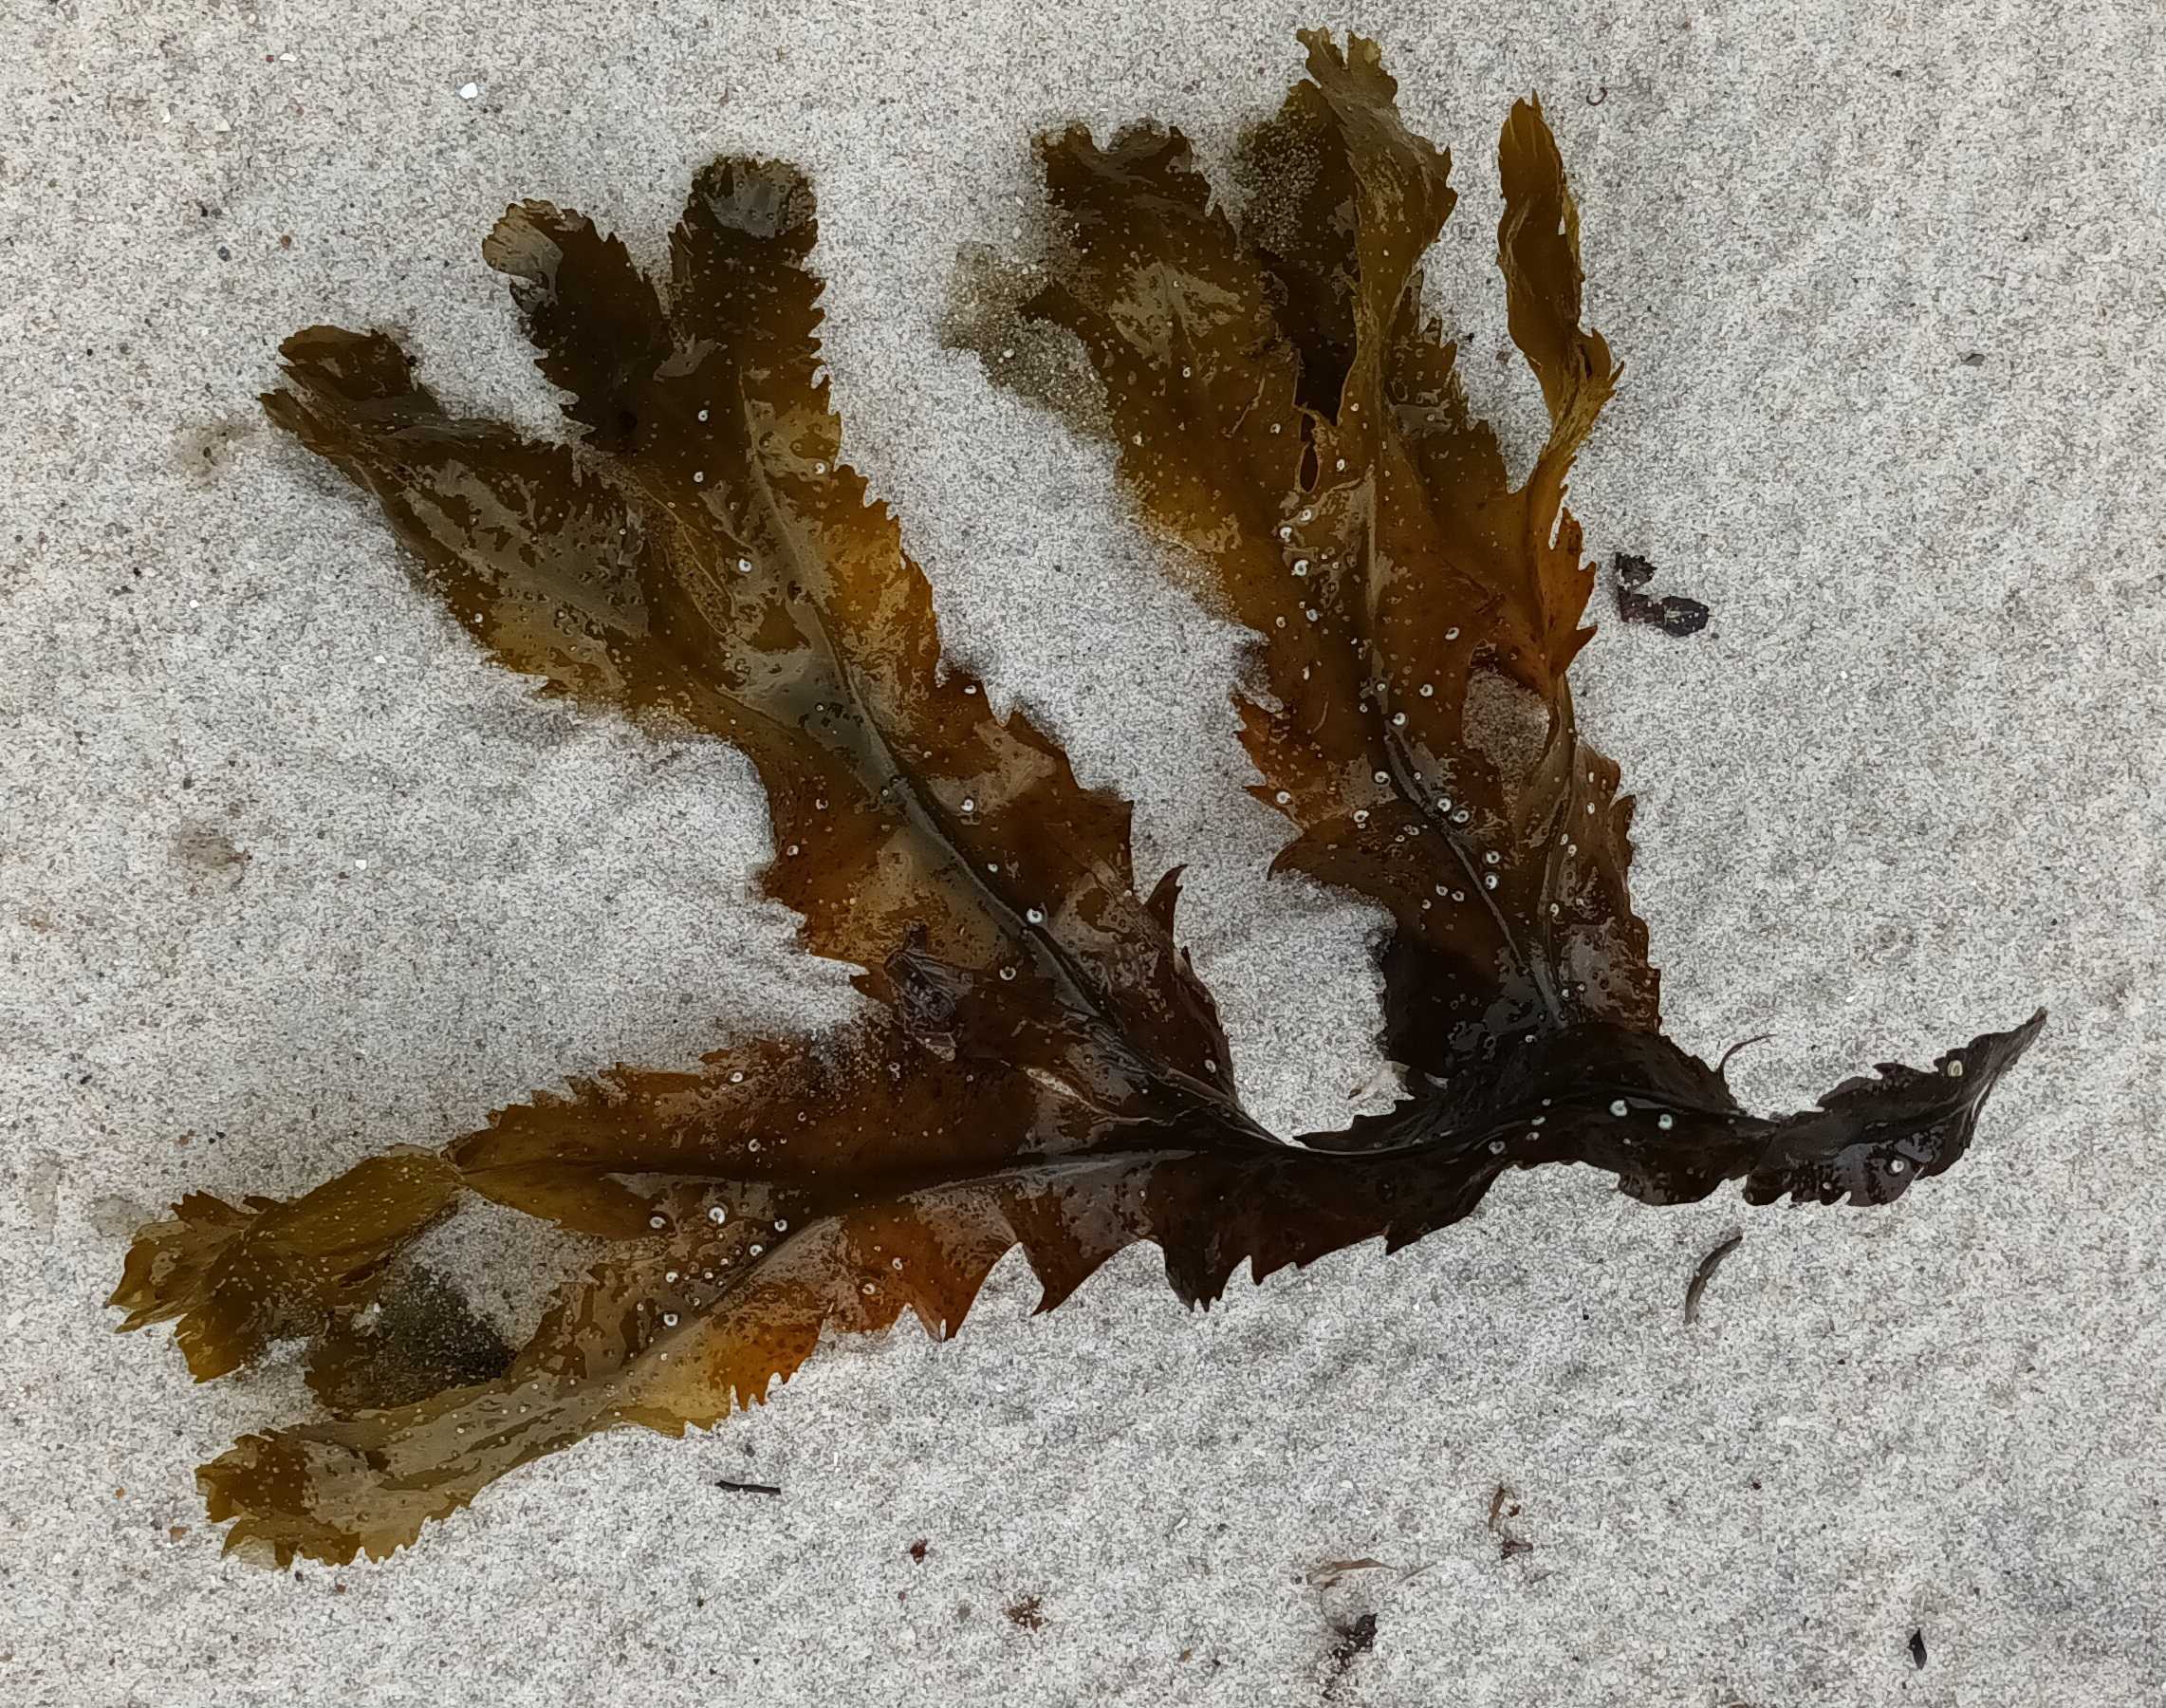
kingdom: Chromista
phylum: Ochrophyta
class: Phaeophyceae
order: Fucales
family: Fucaceae
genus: Fucus
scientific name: Fucus serratus
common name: Savtang
